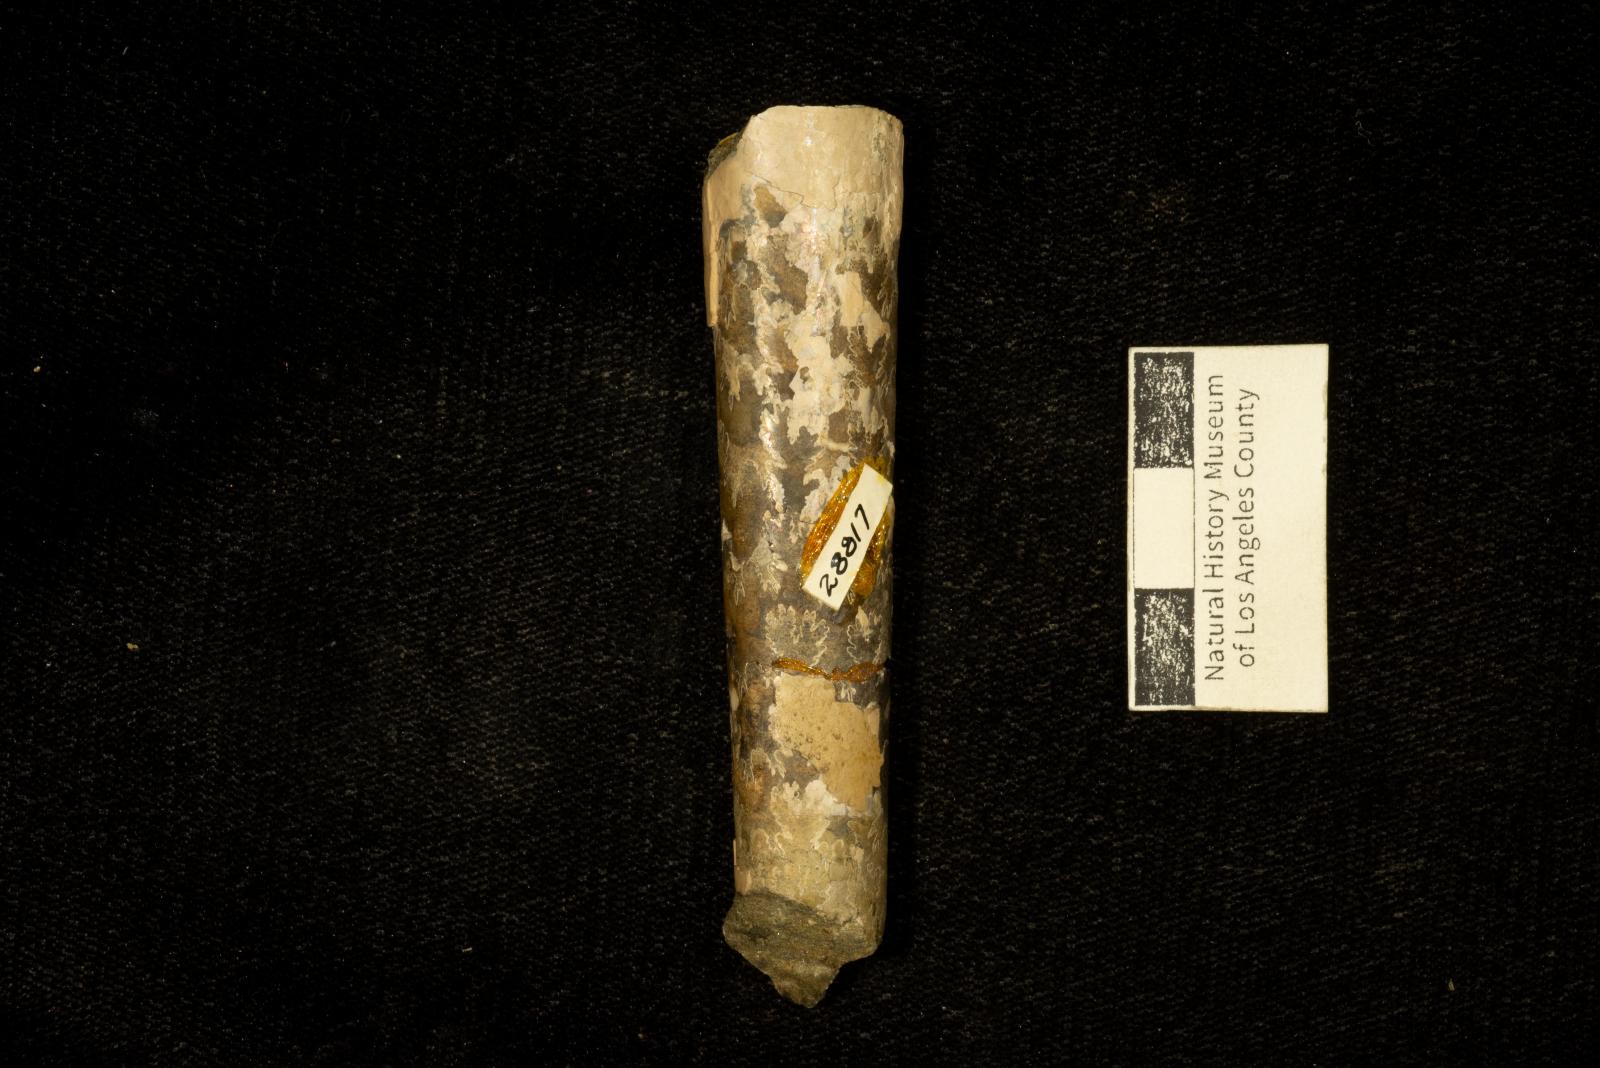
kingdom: Animalia
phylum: Mollusca
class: Cephalopoda
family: Baculitidae
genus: Baculites
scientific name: Baculites chicoensis
